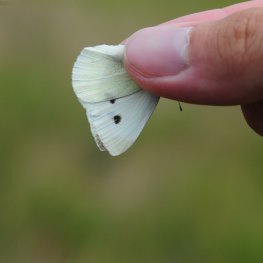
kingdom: Animalia
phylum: Arthropoda
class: Insecta
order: Lepidoptera
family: Pieridae
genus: Pieris
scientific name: Pieris rapae
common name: Cabbage White
